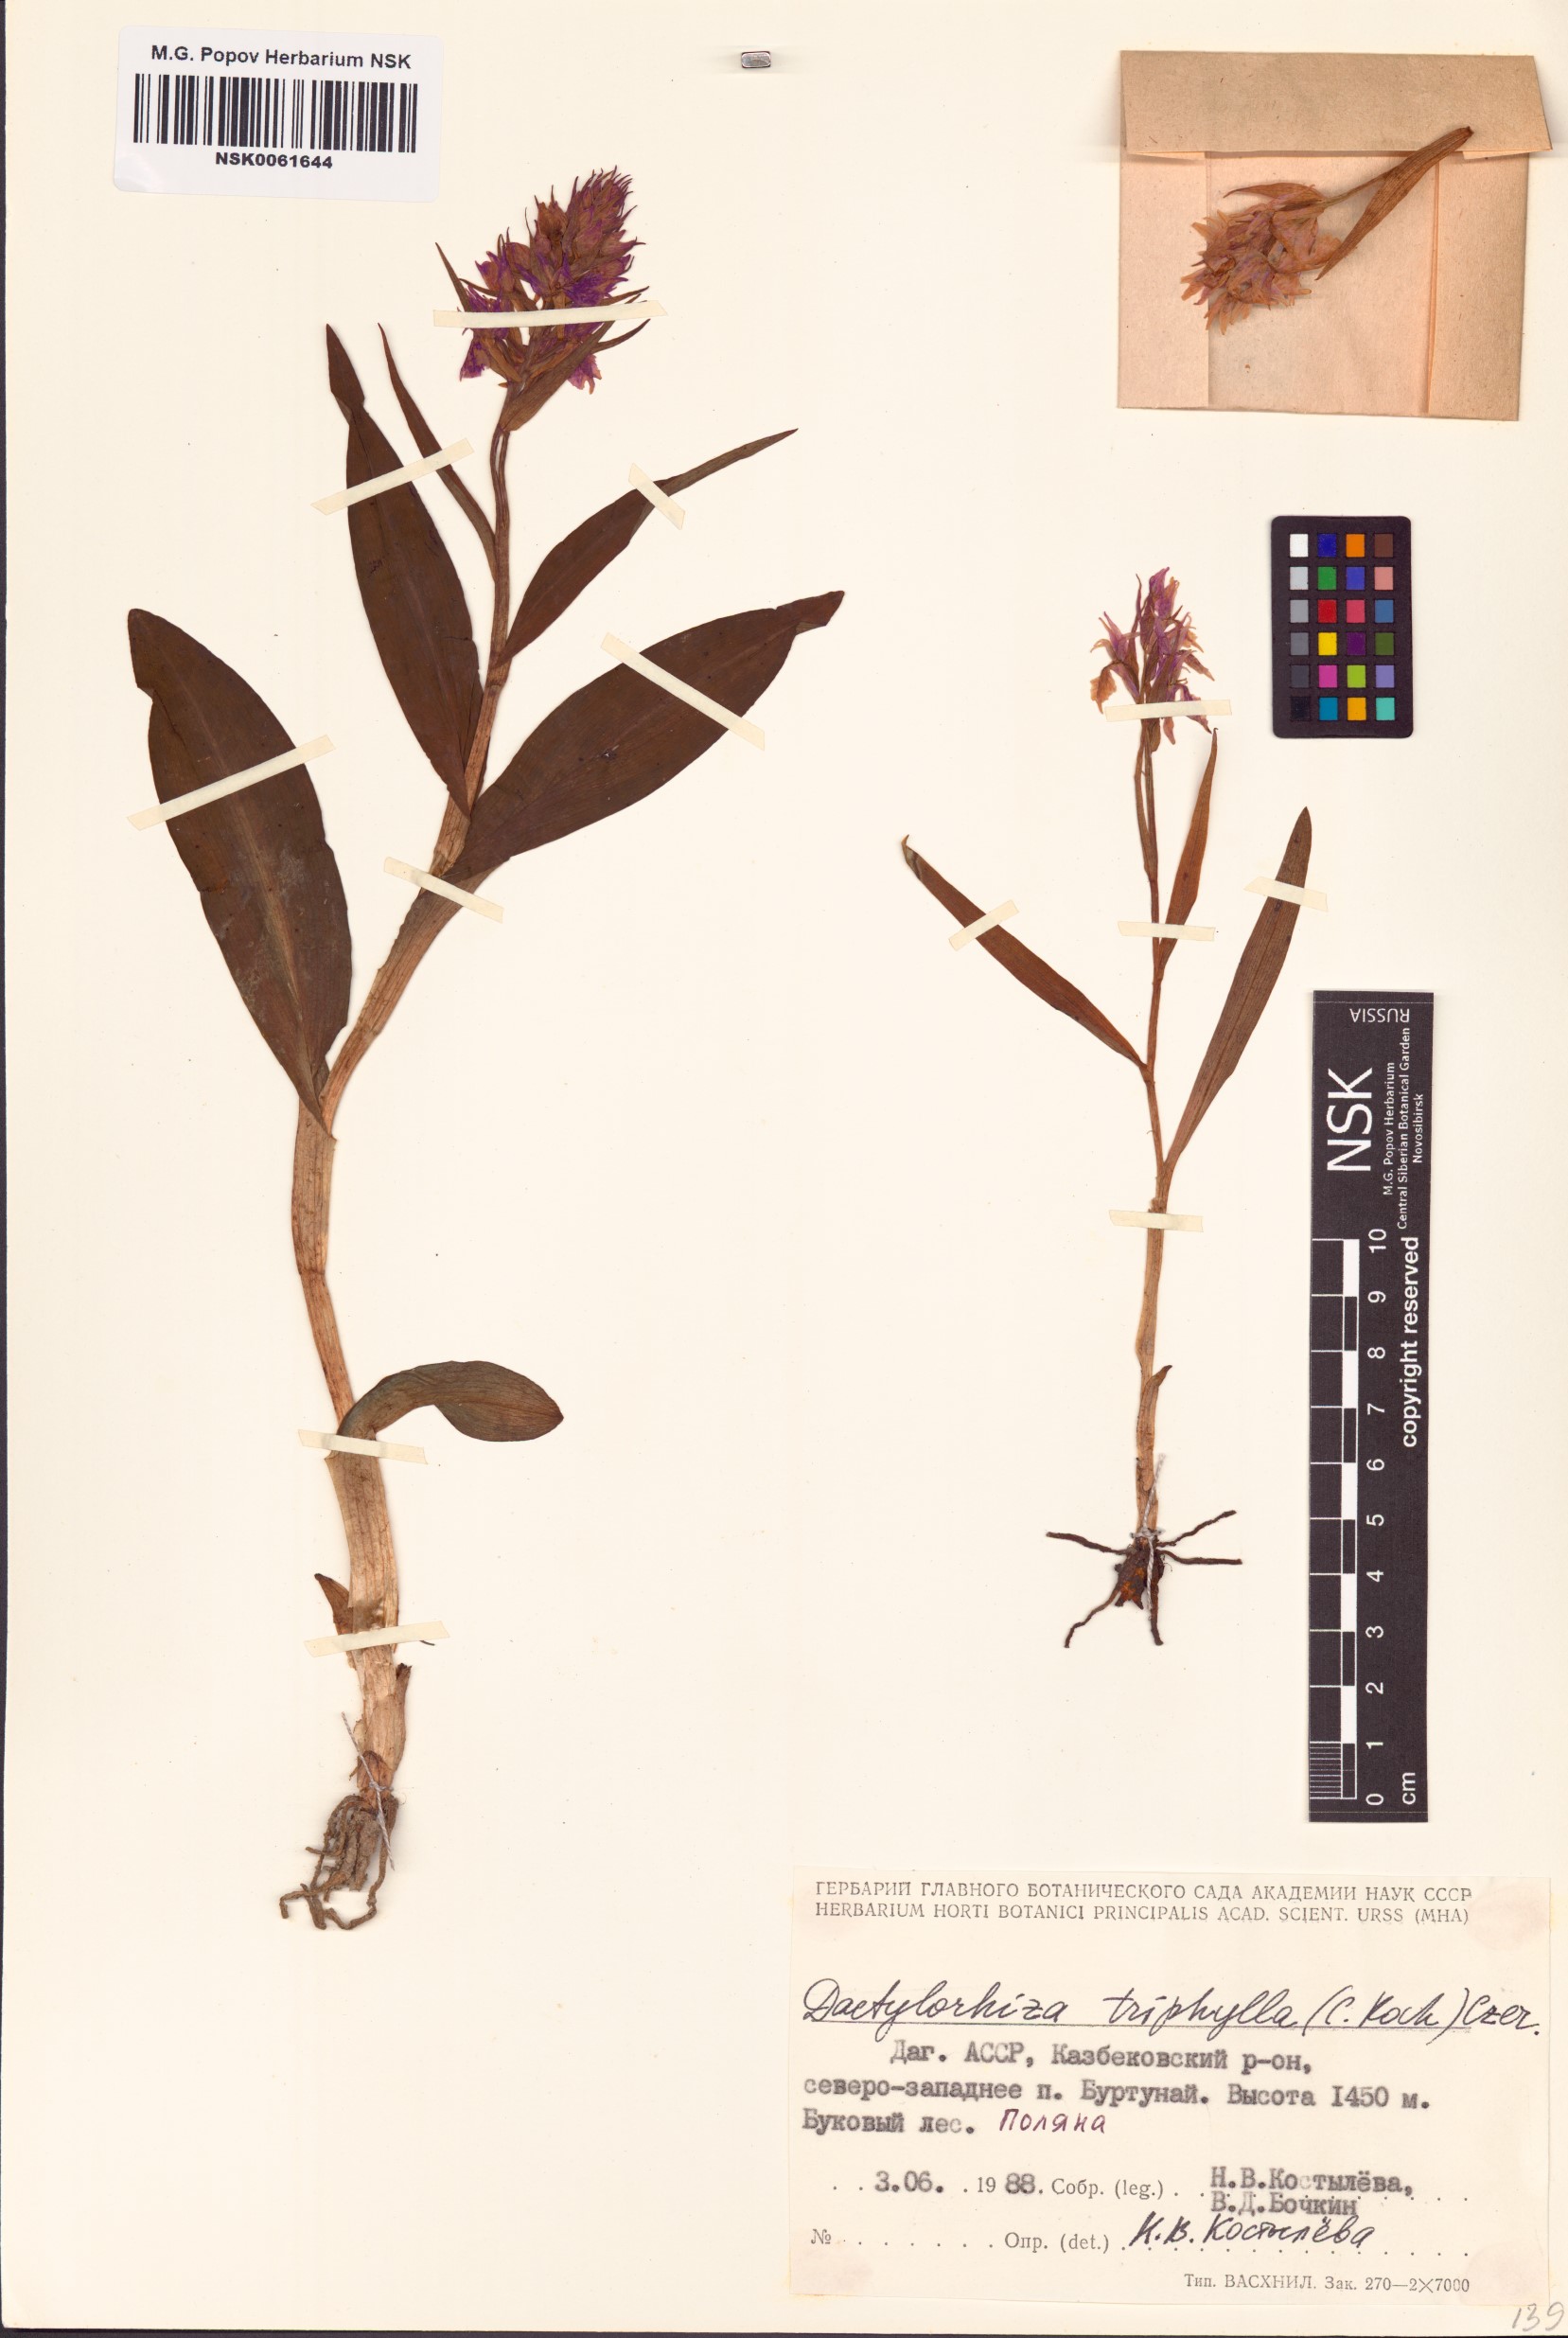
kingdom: Plantae
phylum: Tracheophyta
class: Liliopsida
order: Asparagales
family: Orchidaceae
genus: Dactylorhiza
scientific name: Dactylorhiza urvilleana
